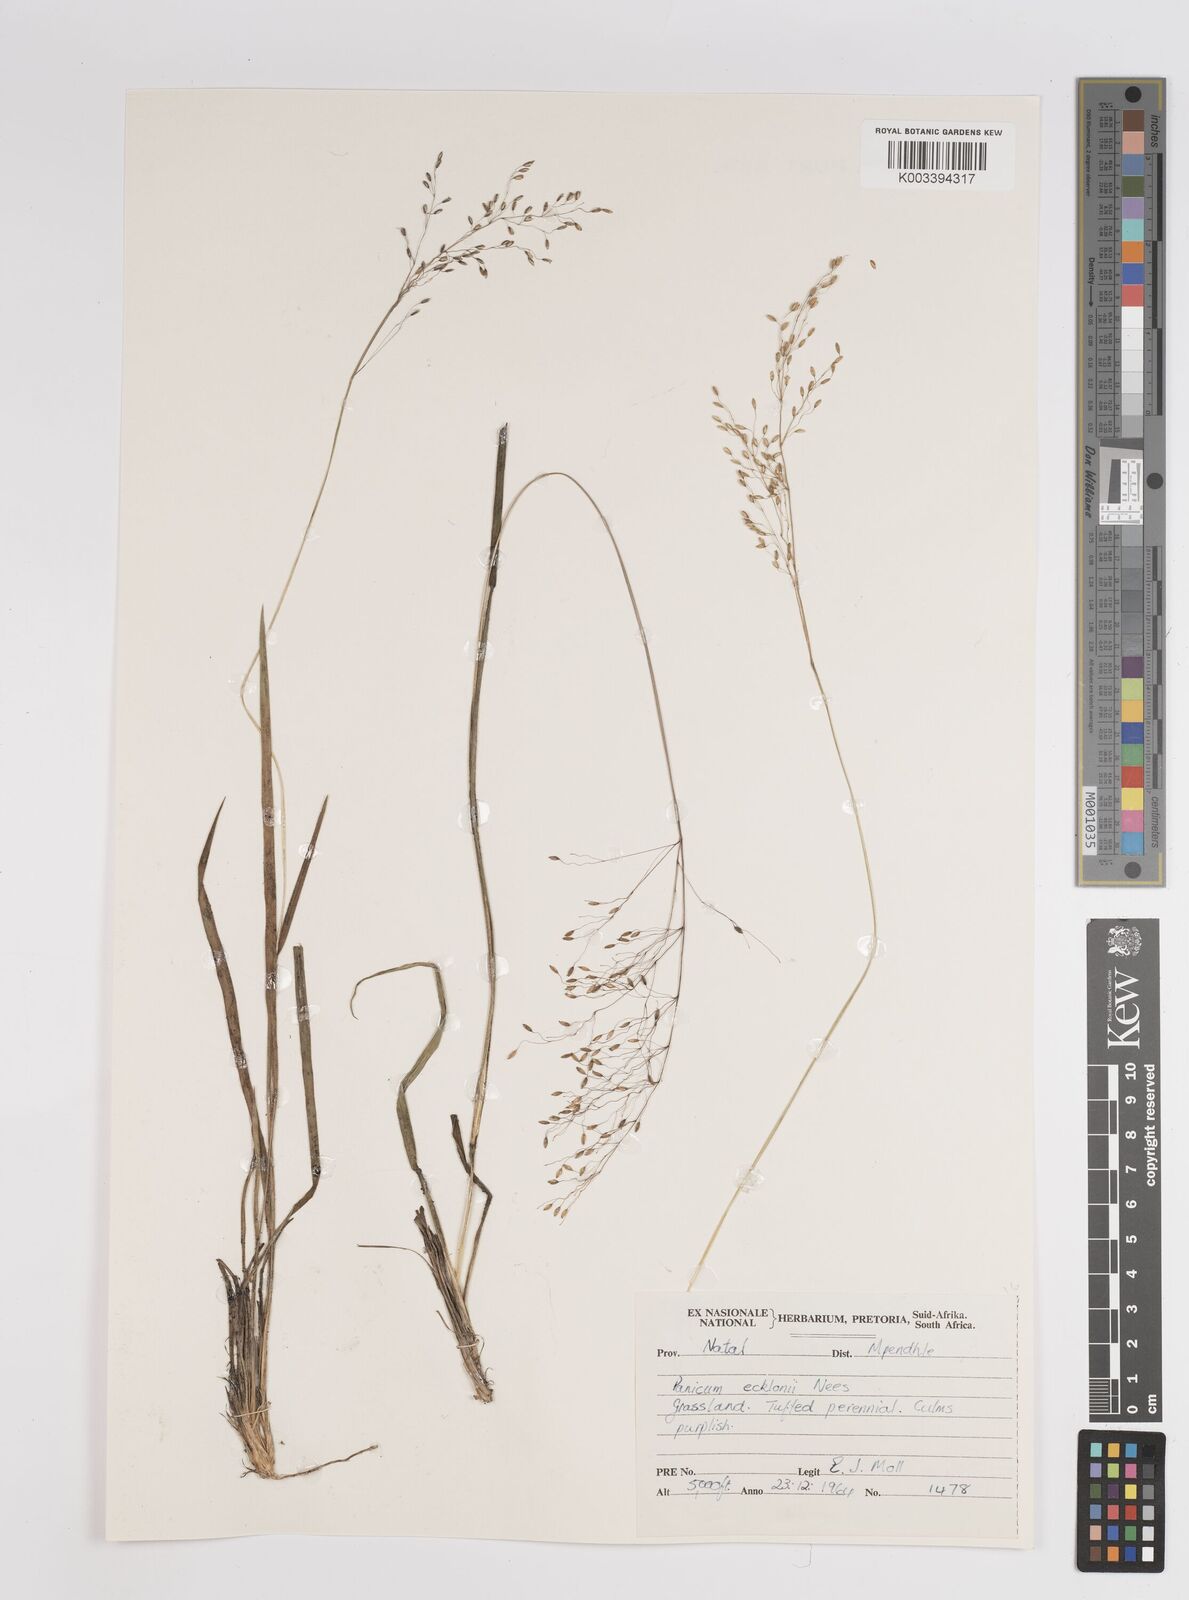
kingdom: Plantae
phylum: Tracheophyta
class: Liliopsida
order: Poales
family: Poaceae
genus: Adenochloa
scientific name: Adenochloa ecklonii
